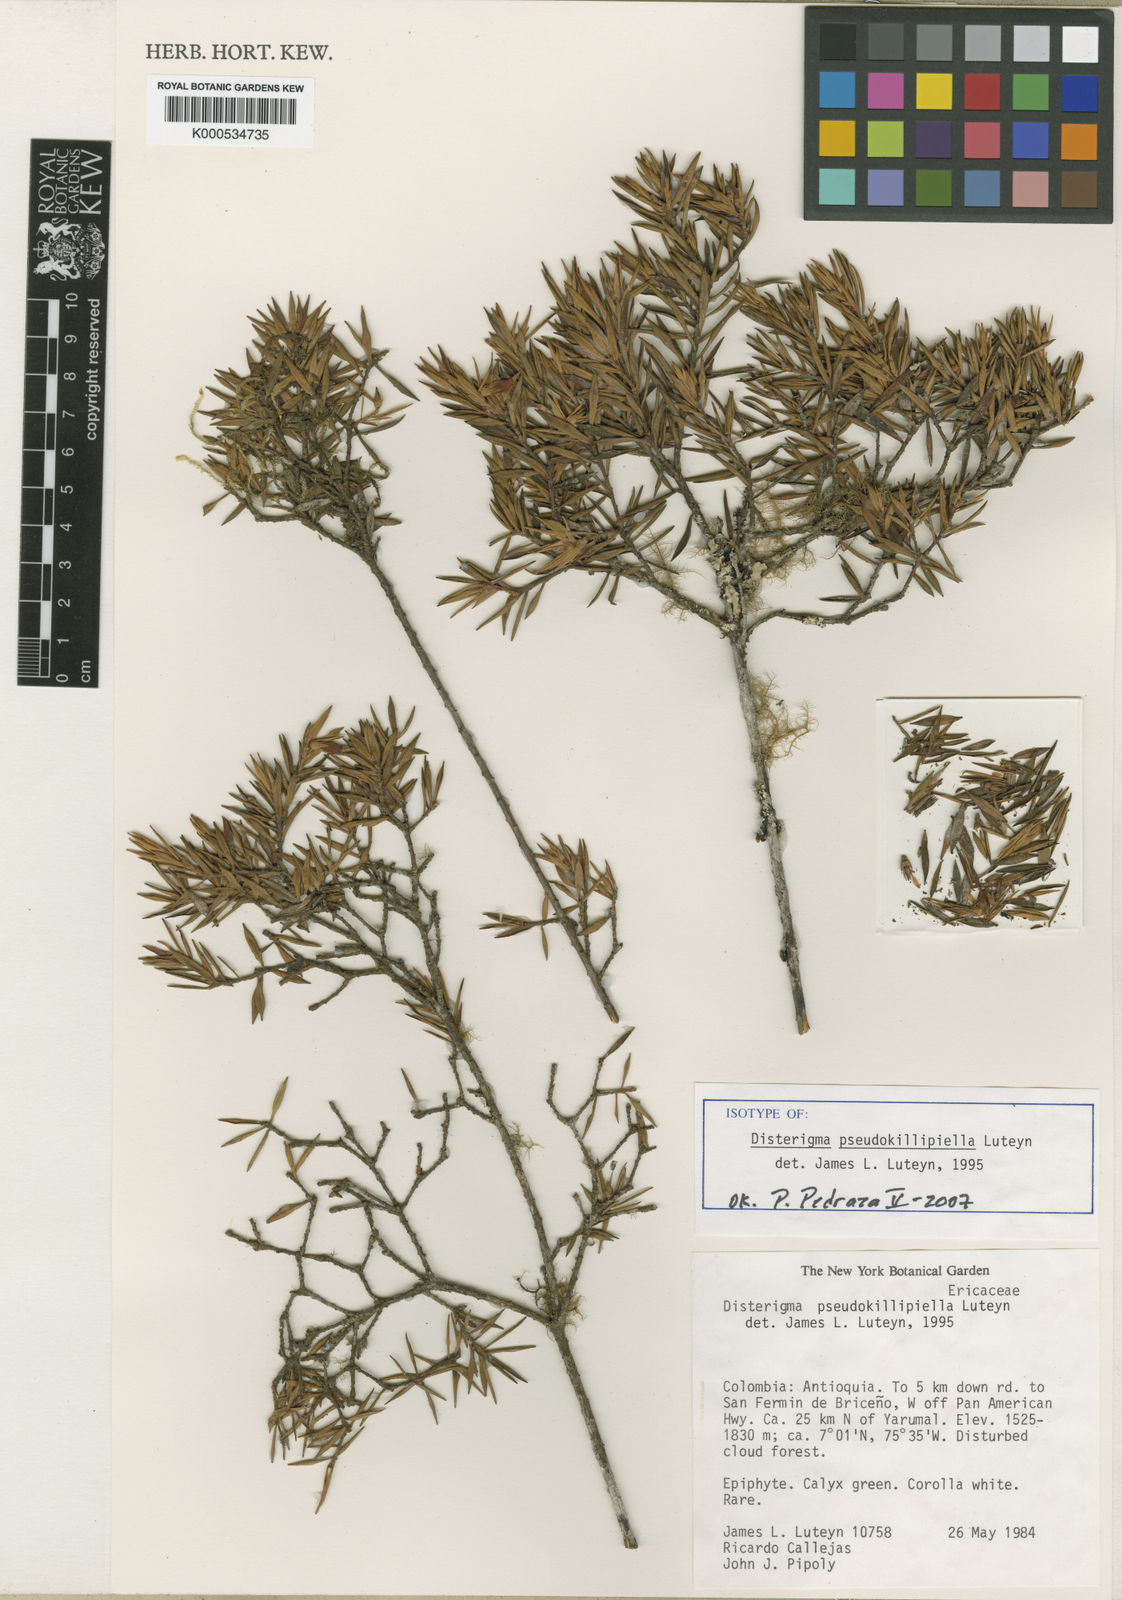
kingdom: Plantae
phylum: Tracheophyta
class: Magnoliopsida
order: Ericales
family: Ericaceae
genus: Disterigma
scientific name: Disterigma pseudokillipiella
